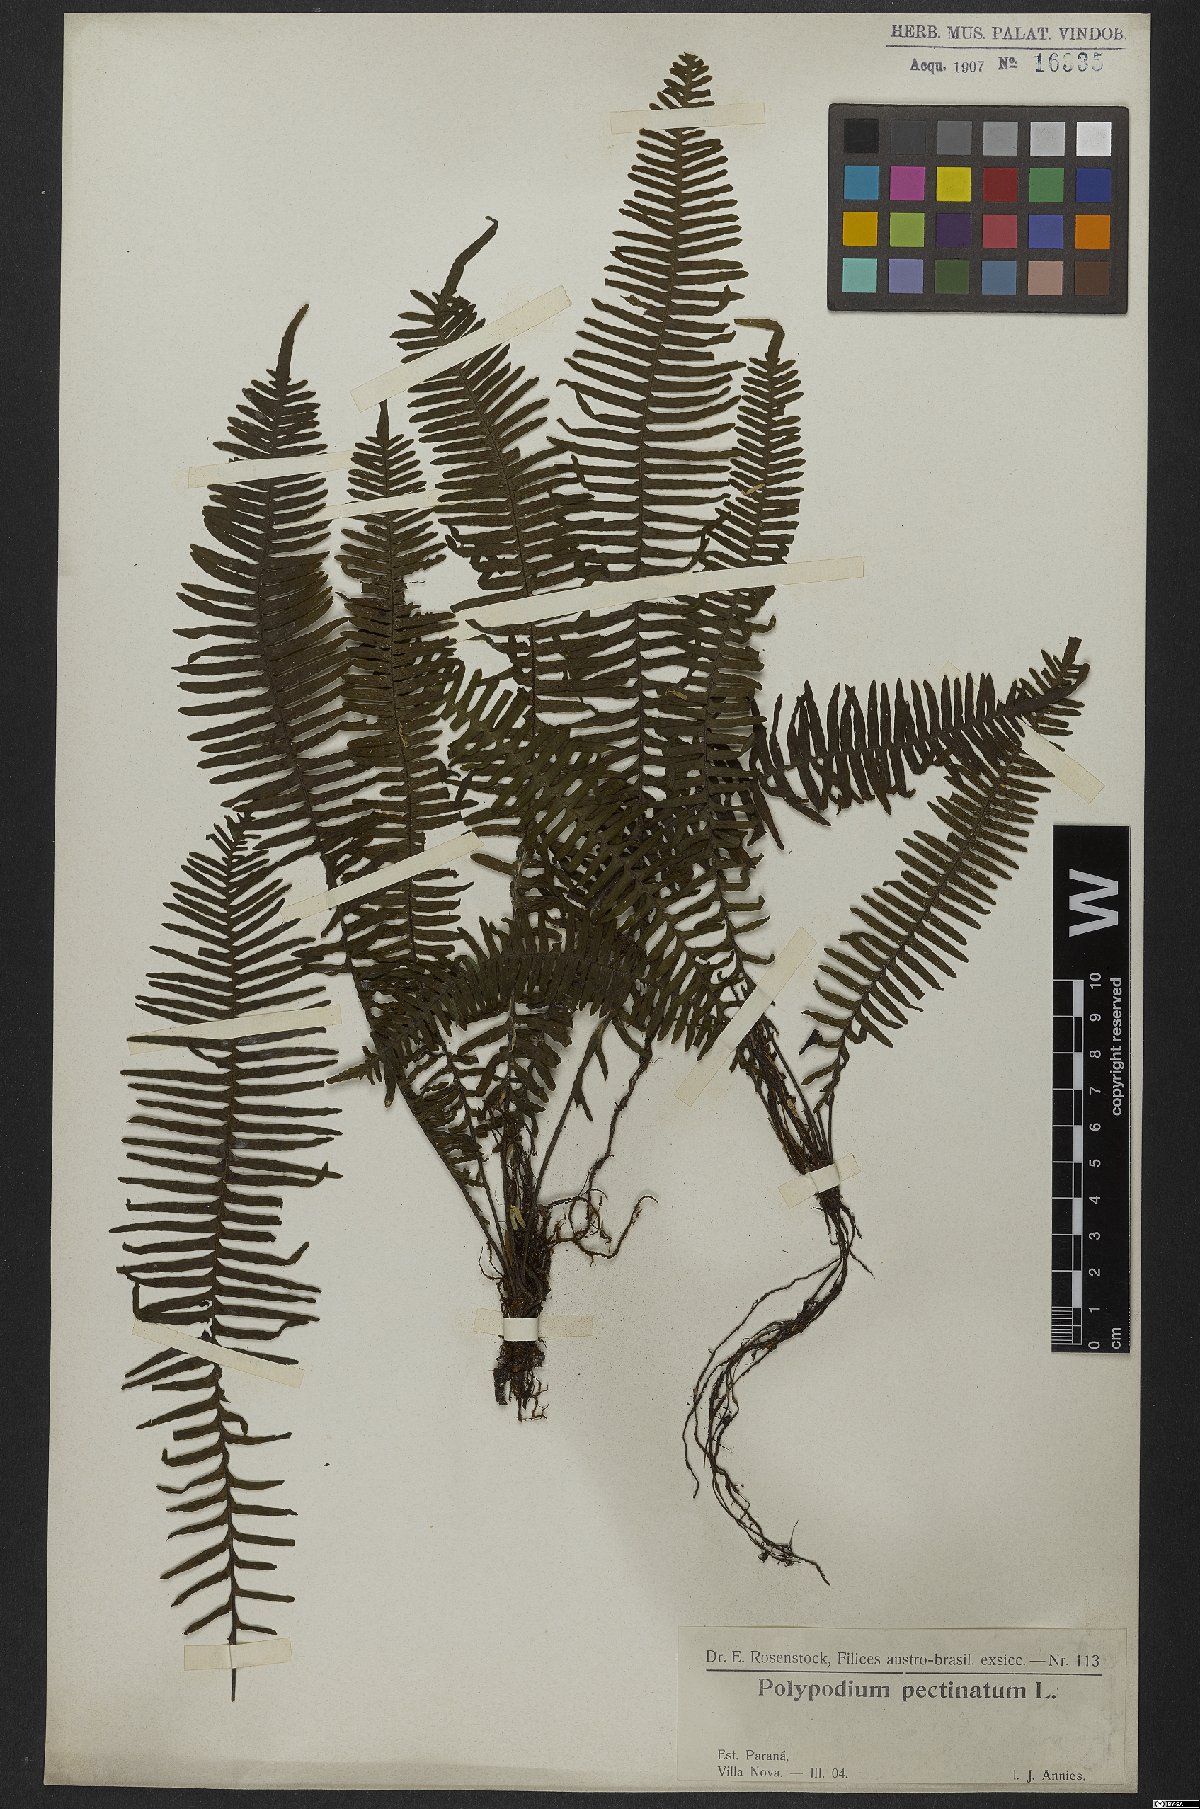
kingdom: Plantae
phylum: Tracheophyta
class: Polypodiopsida
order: Polypodiales
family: Polypodiaceae
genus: Pecluma
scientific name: Pecluma pectinata
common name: Msasa fern
